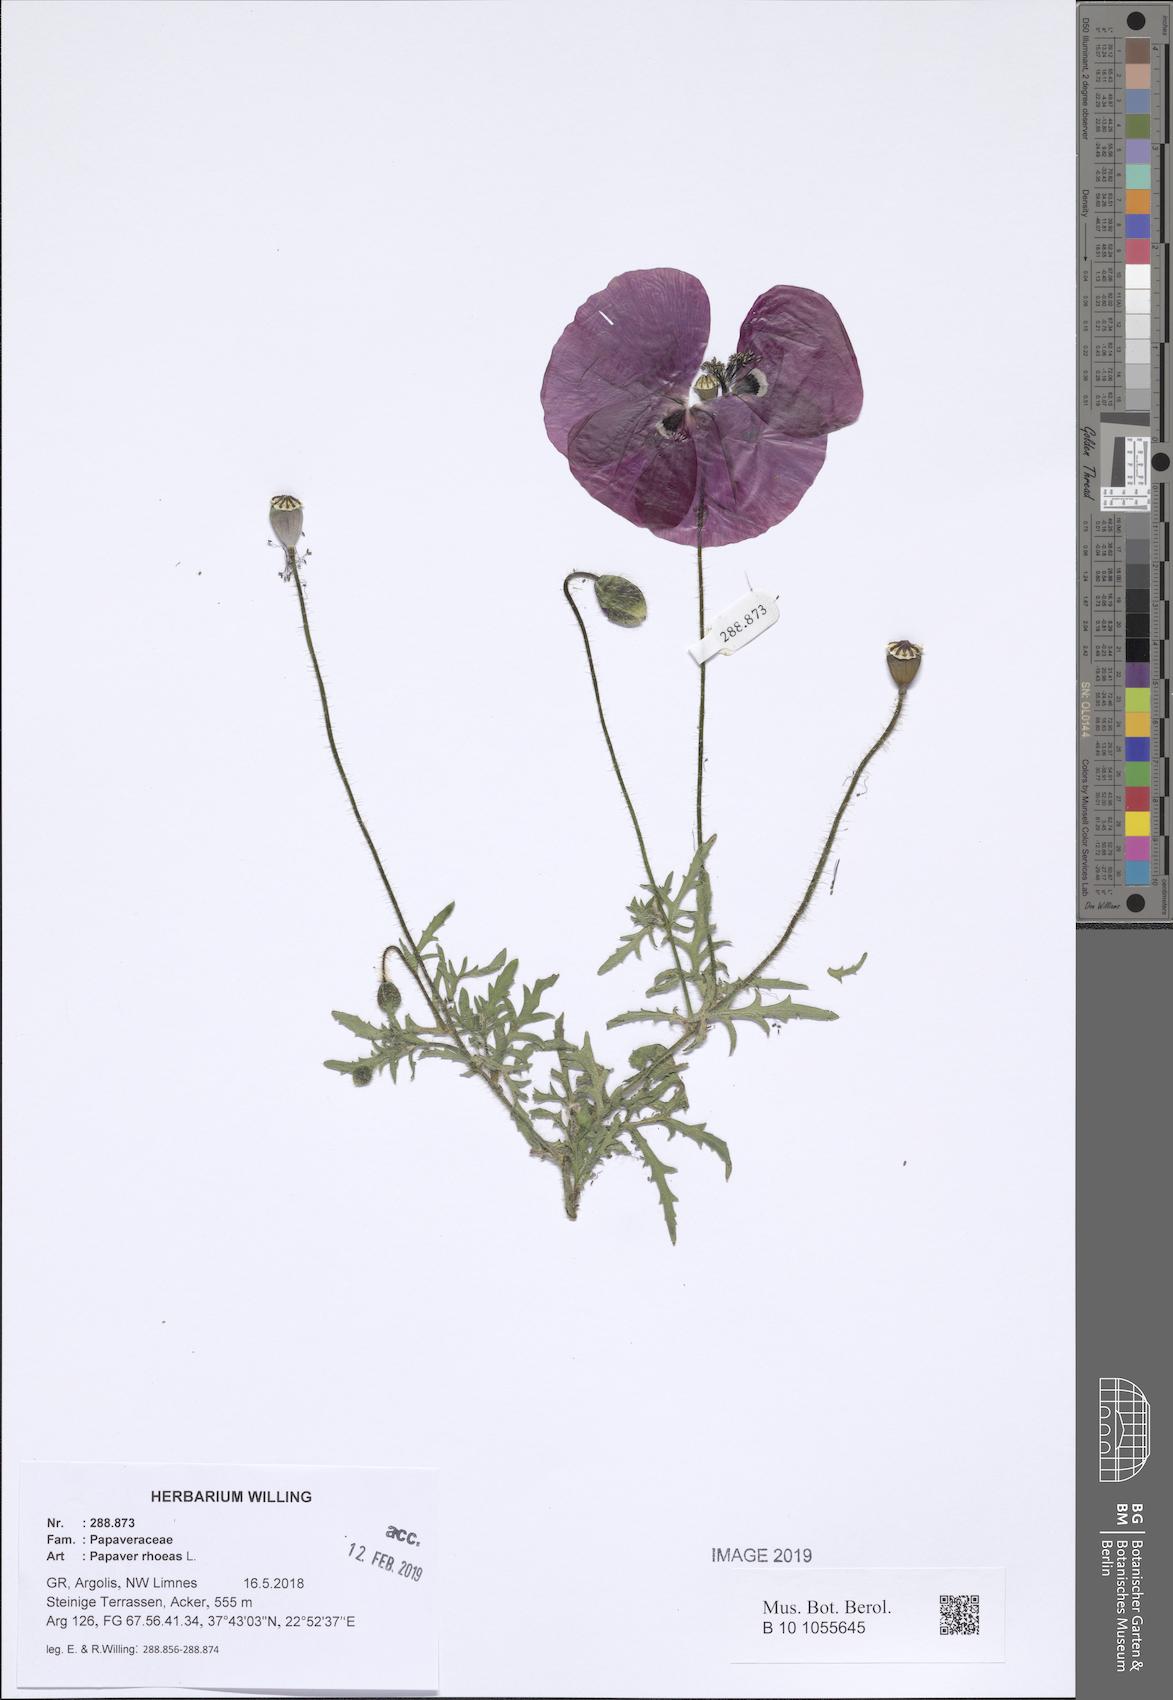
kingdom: Plantae
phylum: Tracheophyta
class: Magnoliopsida
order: Ranunculales
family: Papaveraceae
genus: Papaver
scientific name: Papaver rhoeas
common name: Corn poppy
